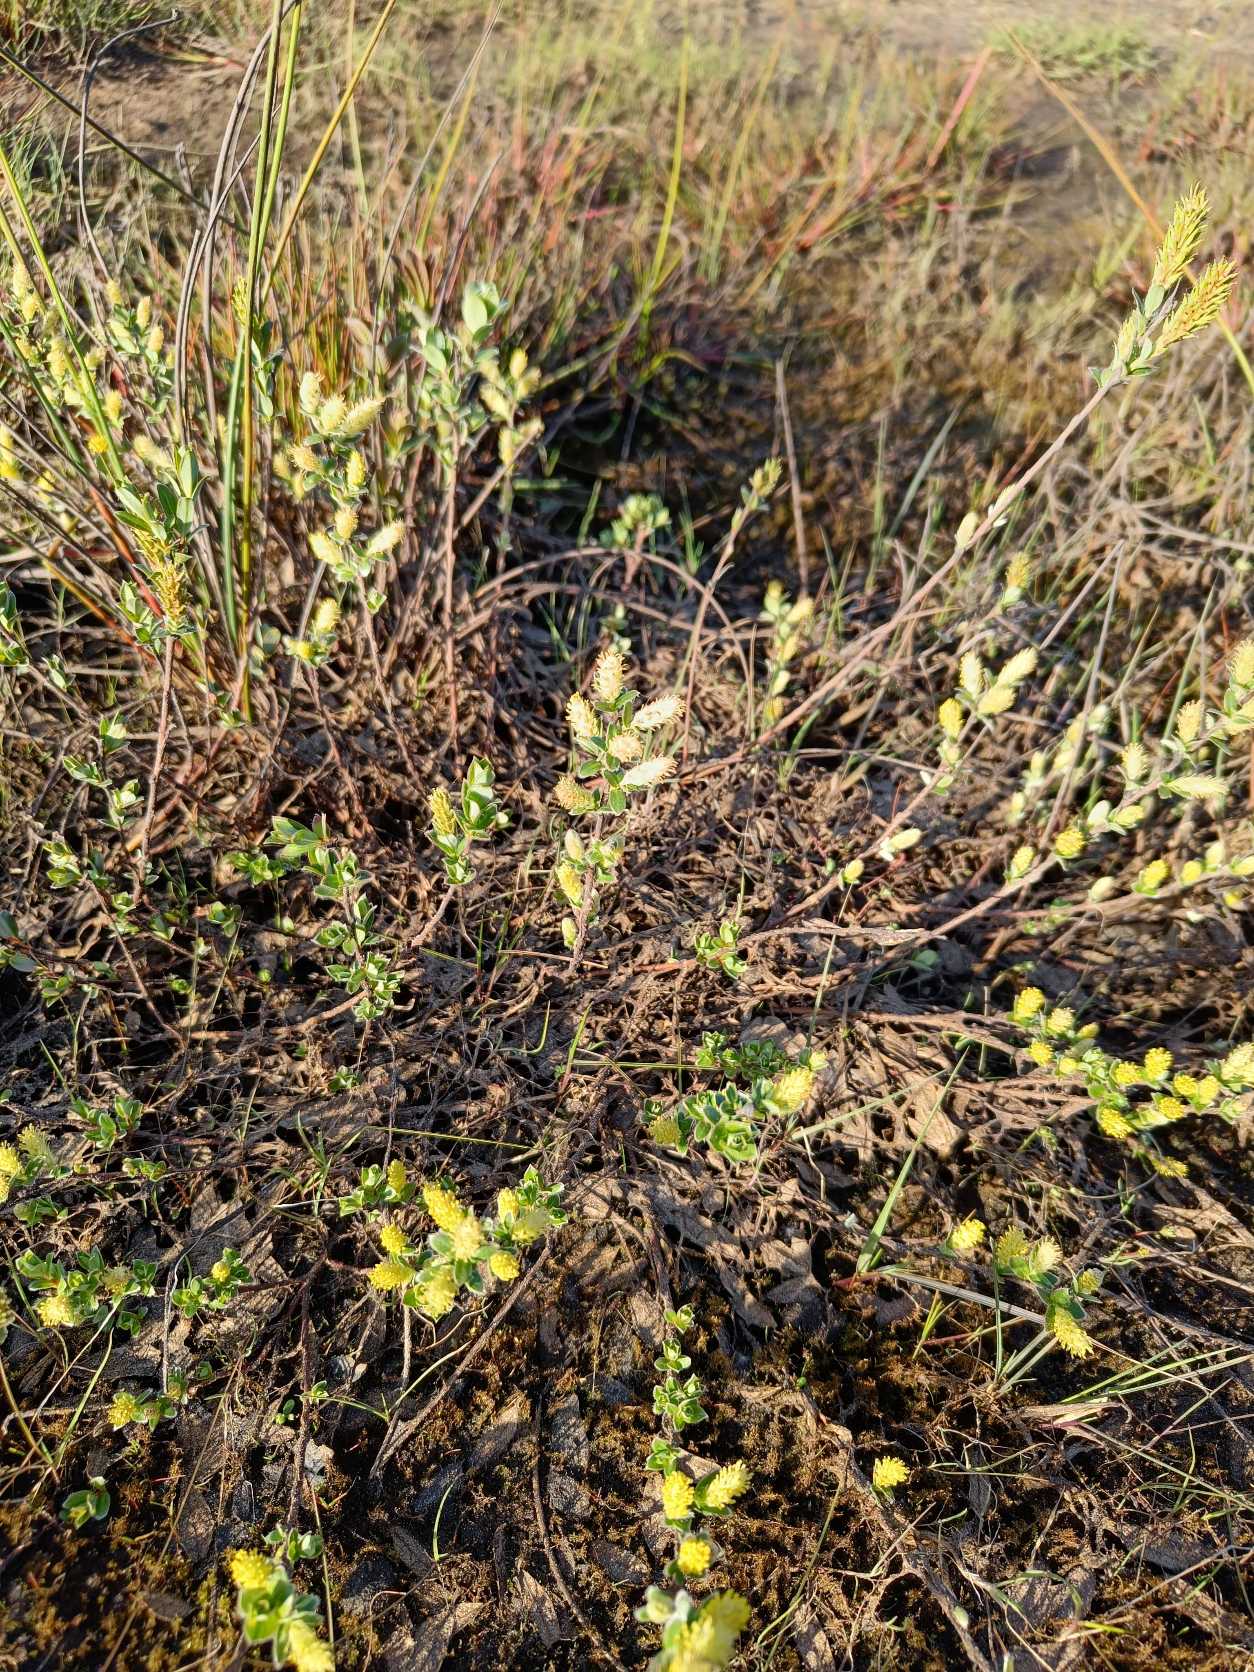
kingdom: Plantae
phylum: Tracheophyta
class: Magnoliopsida
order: Malpighiales
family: Salicaceae
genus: Salix
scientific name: Salix repens
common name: Krybende pil
